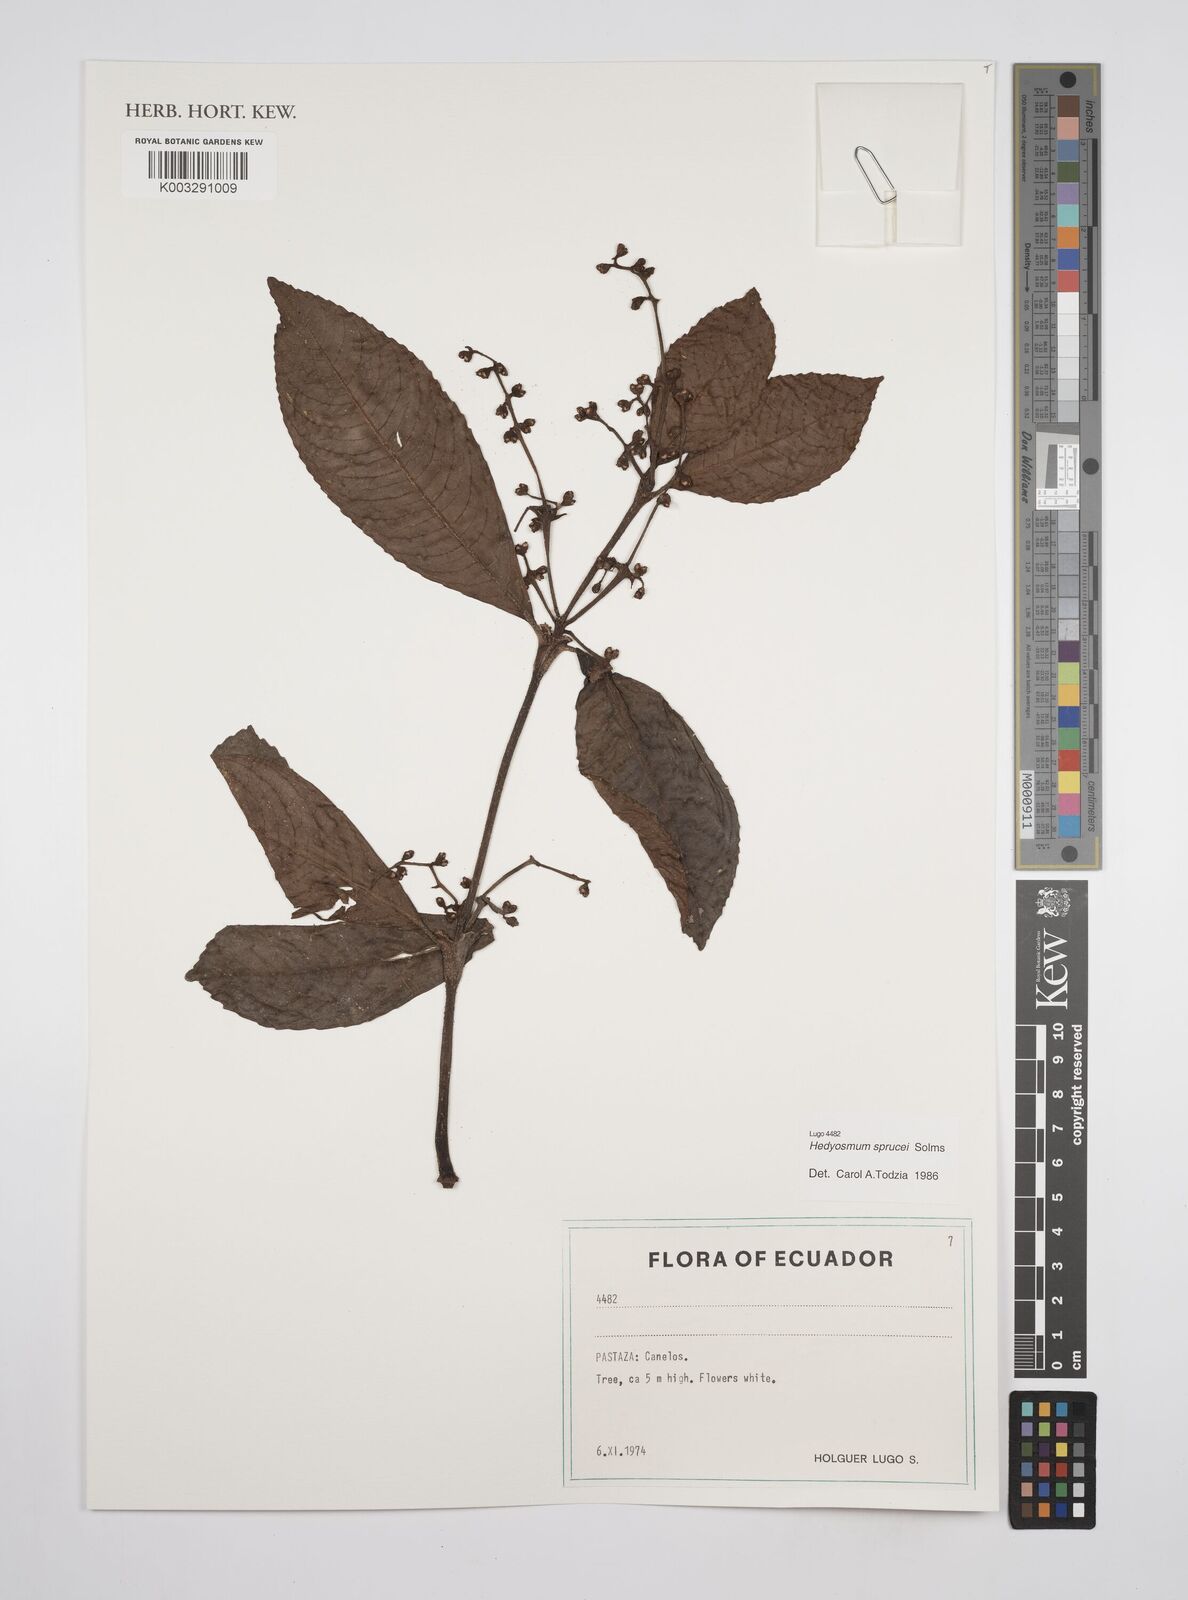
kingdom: Plantae
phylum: Tracheophyta
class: Magnoliopsida
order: Chloranthales
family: Chloranthaceae
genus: Hedyosmum
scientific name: Hedyosmum sprucei
